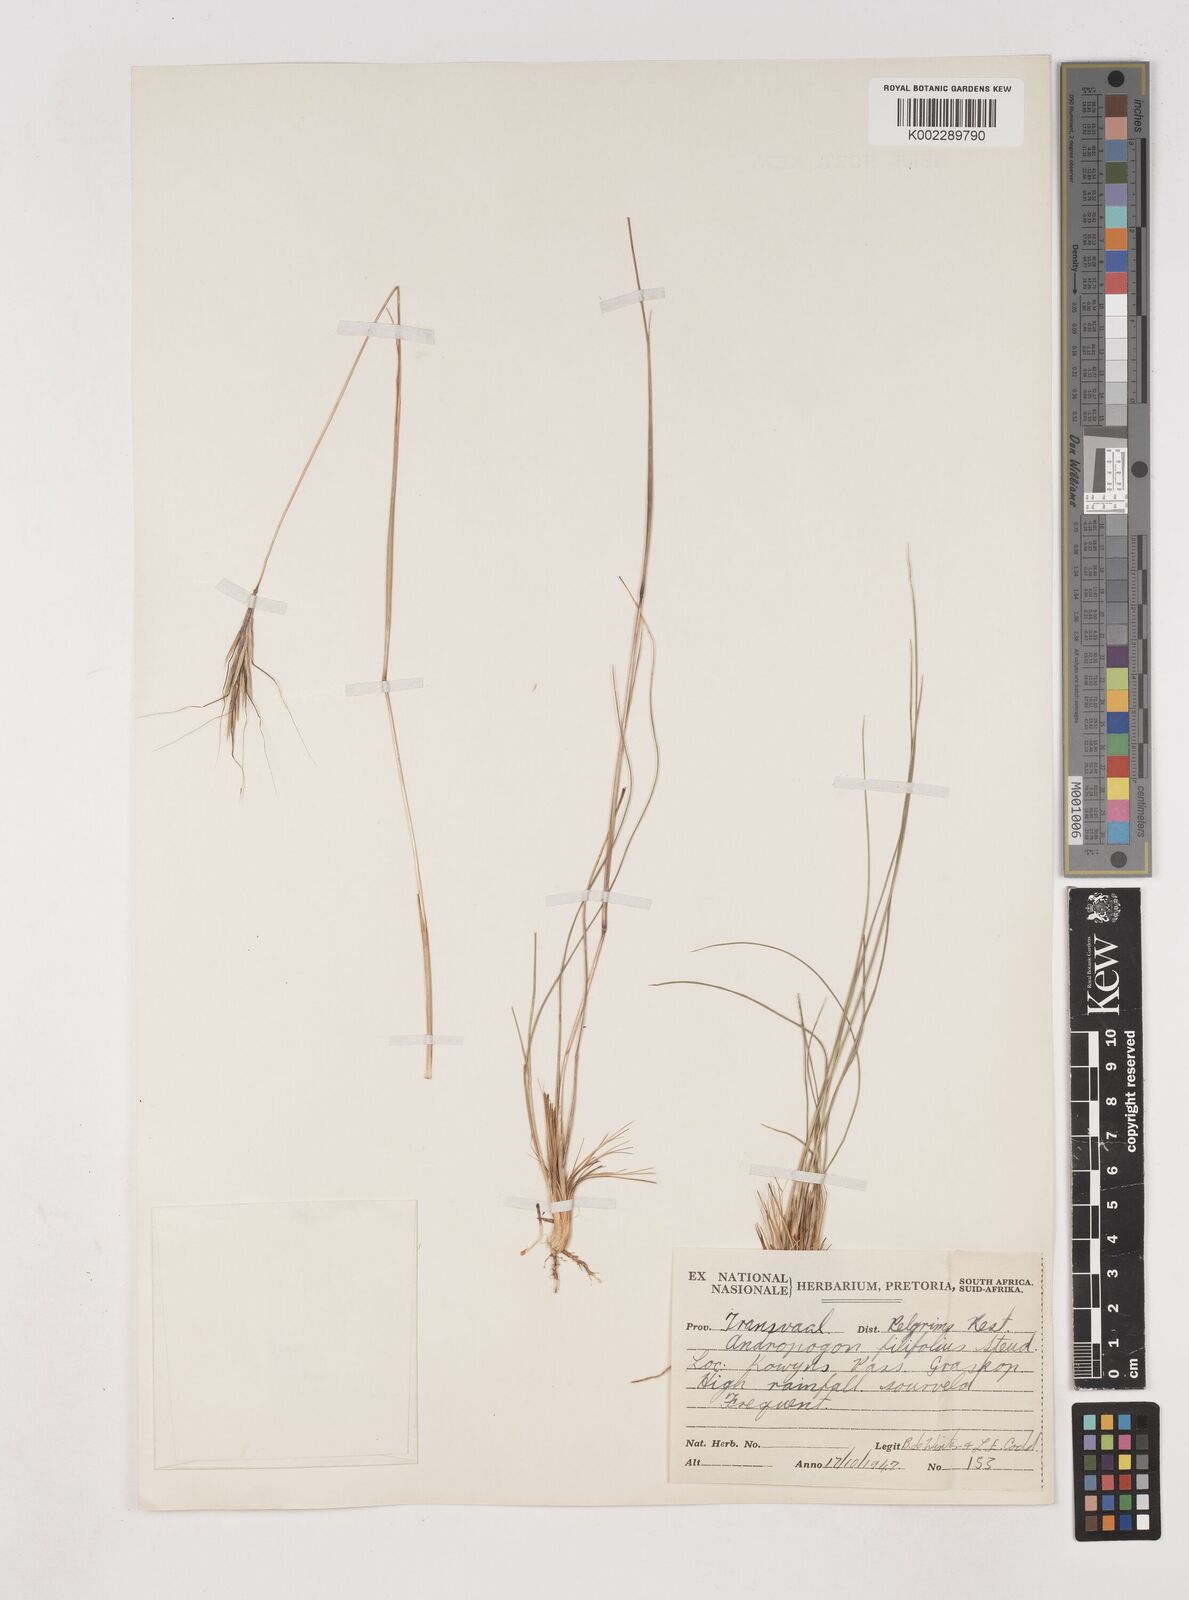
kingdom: Plantae
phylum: Tracheophyta
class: Liliopsida
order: Poales
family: Poaceae
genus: Diheteropogon
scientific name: Diheteropogon filifolius
